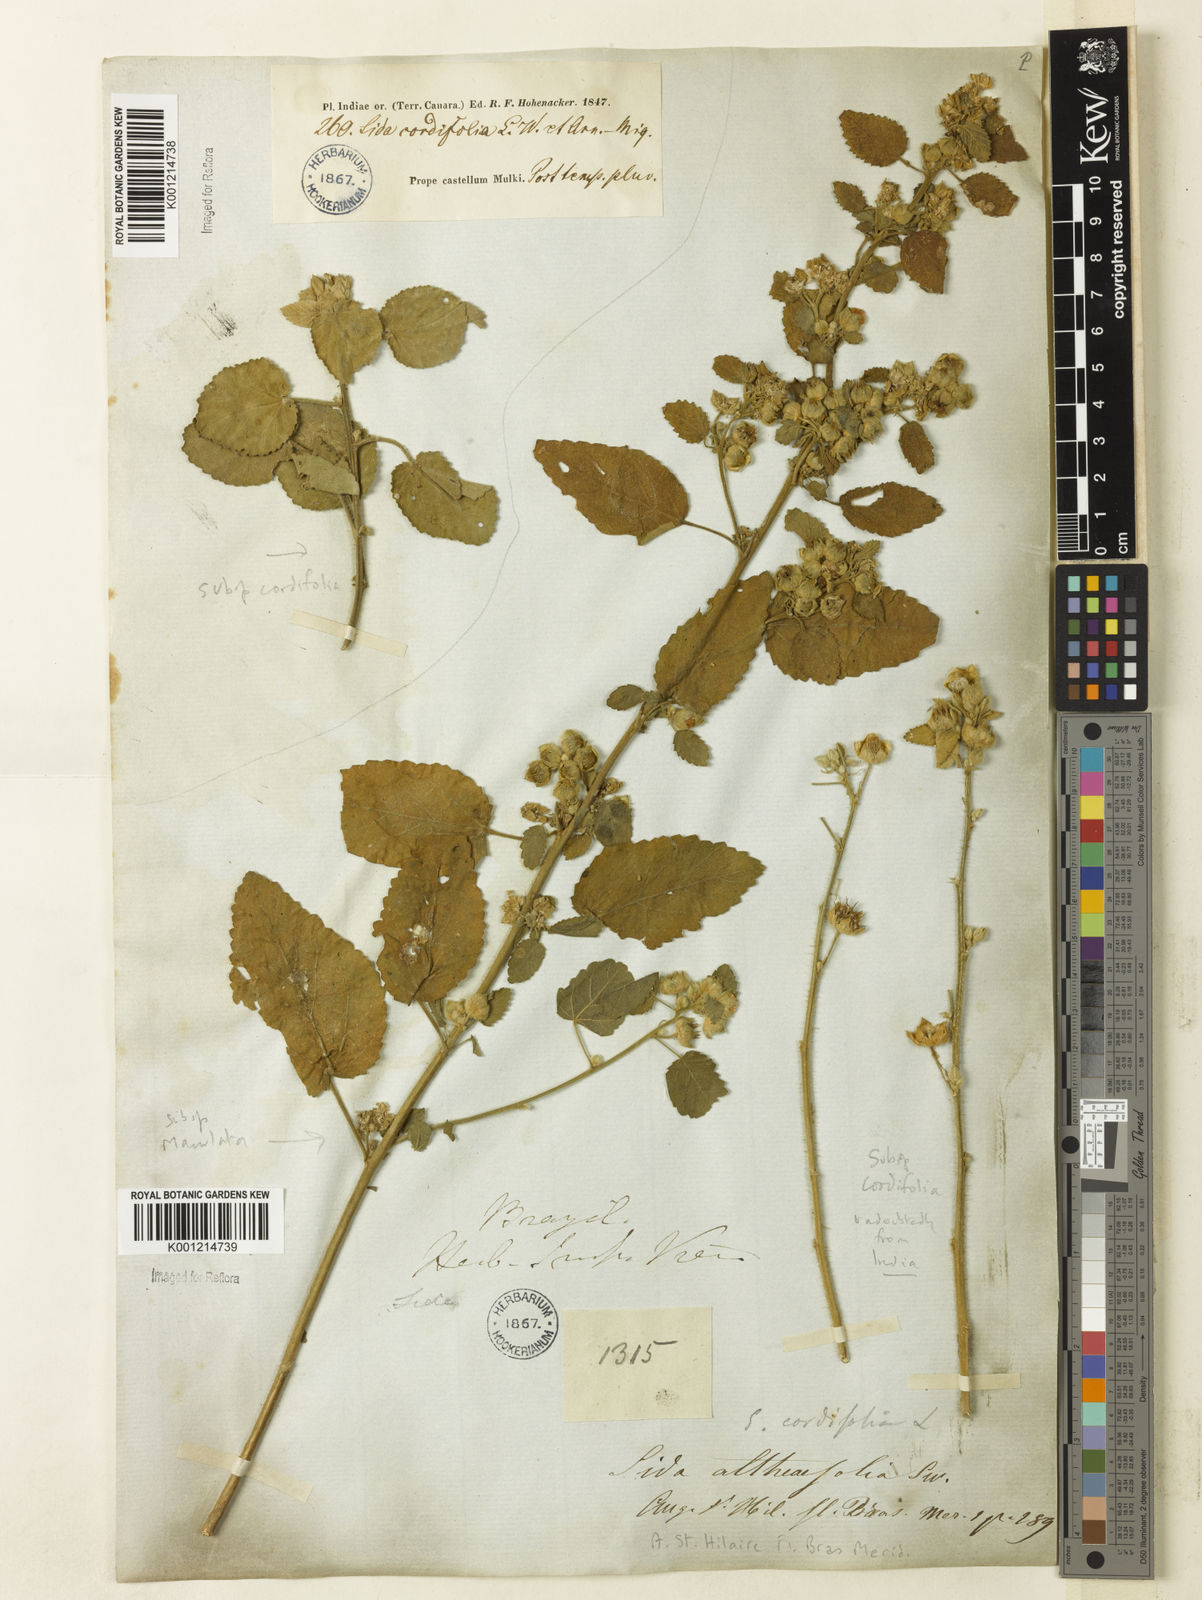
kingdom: Plantae
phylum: Tracheophyta
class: Magnoliopsida
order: Malvales
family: Malvaceae
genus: Sida
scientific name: Sida cordifolia
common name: Ilima
